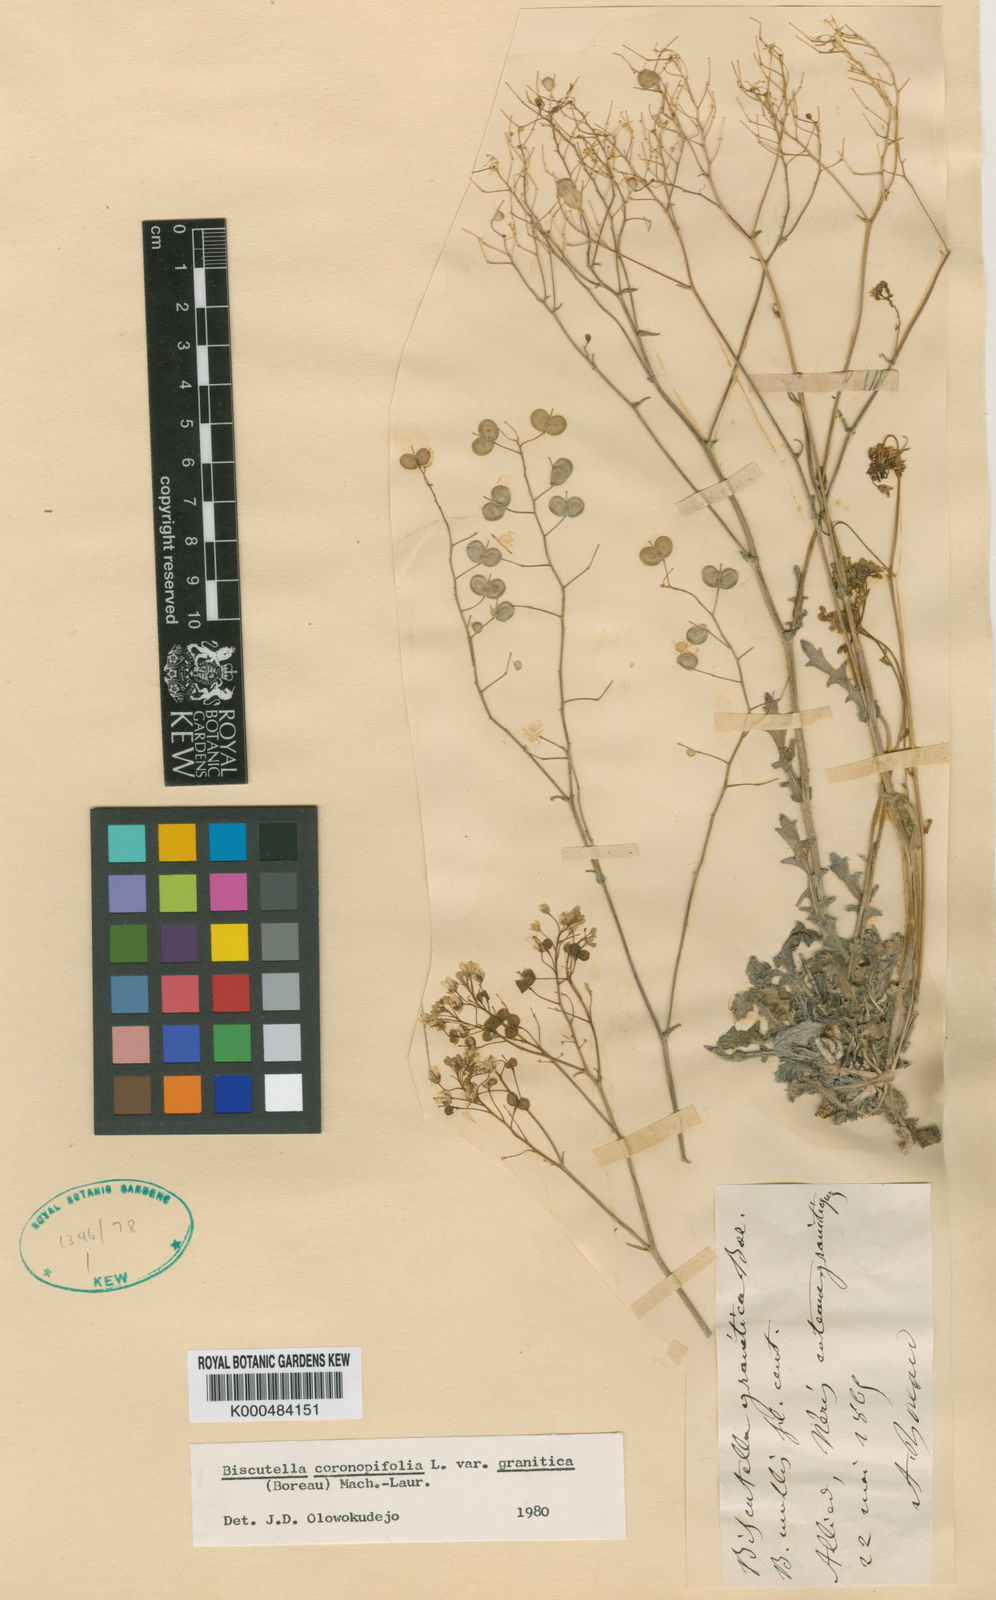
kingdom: Plantae
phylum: Tracheophyta
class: Magnoliopsida
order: Brassicales
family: Brassicaceae
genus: Biscutella
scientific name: Biscutella coronopifolia
